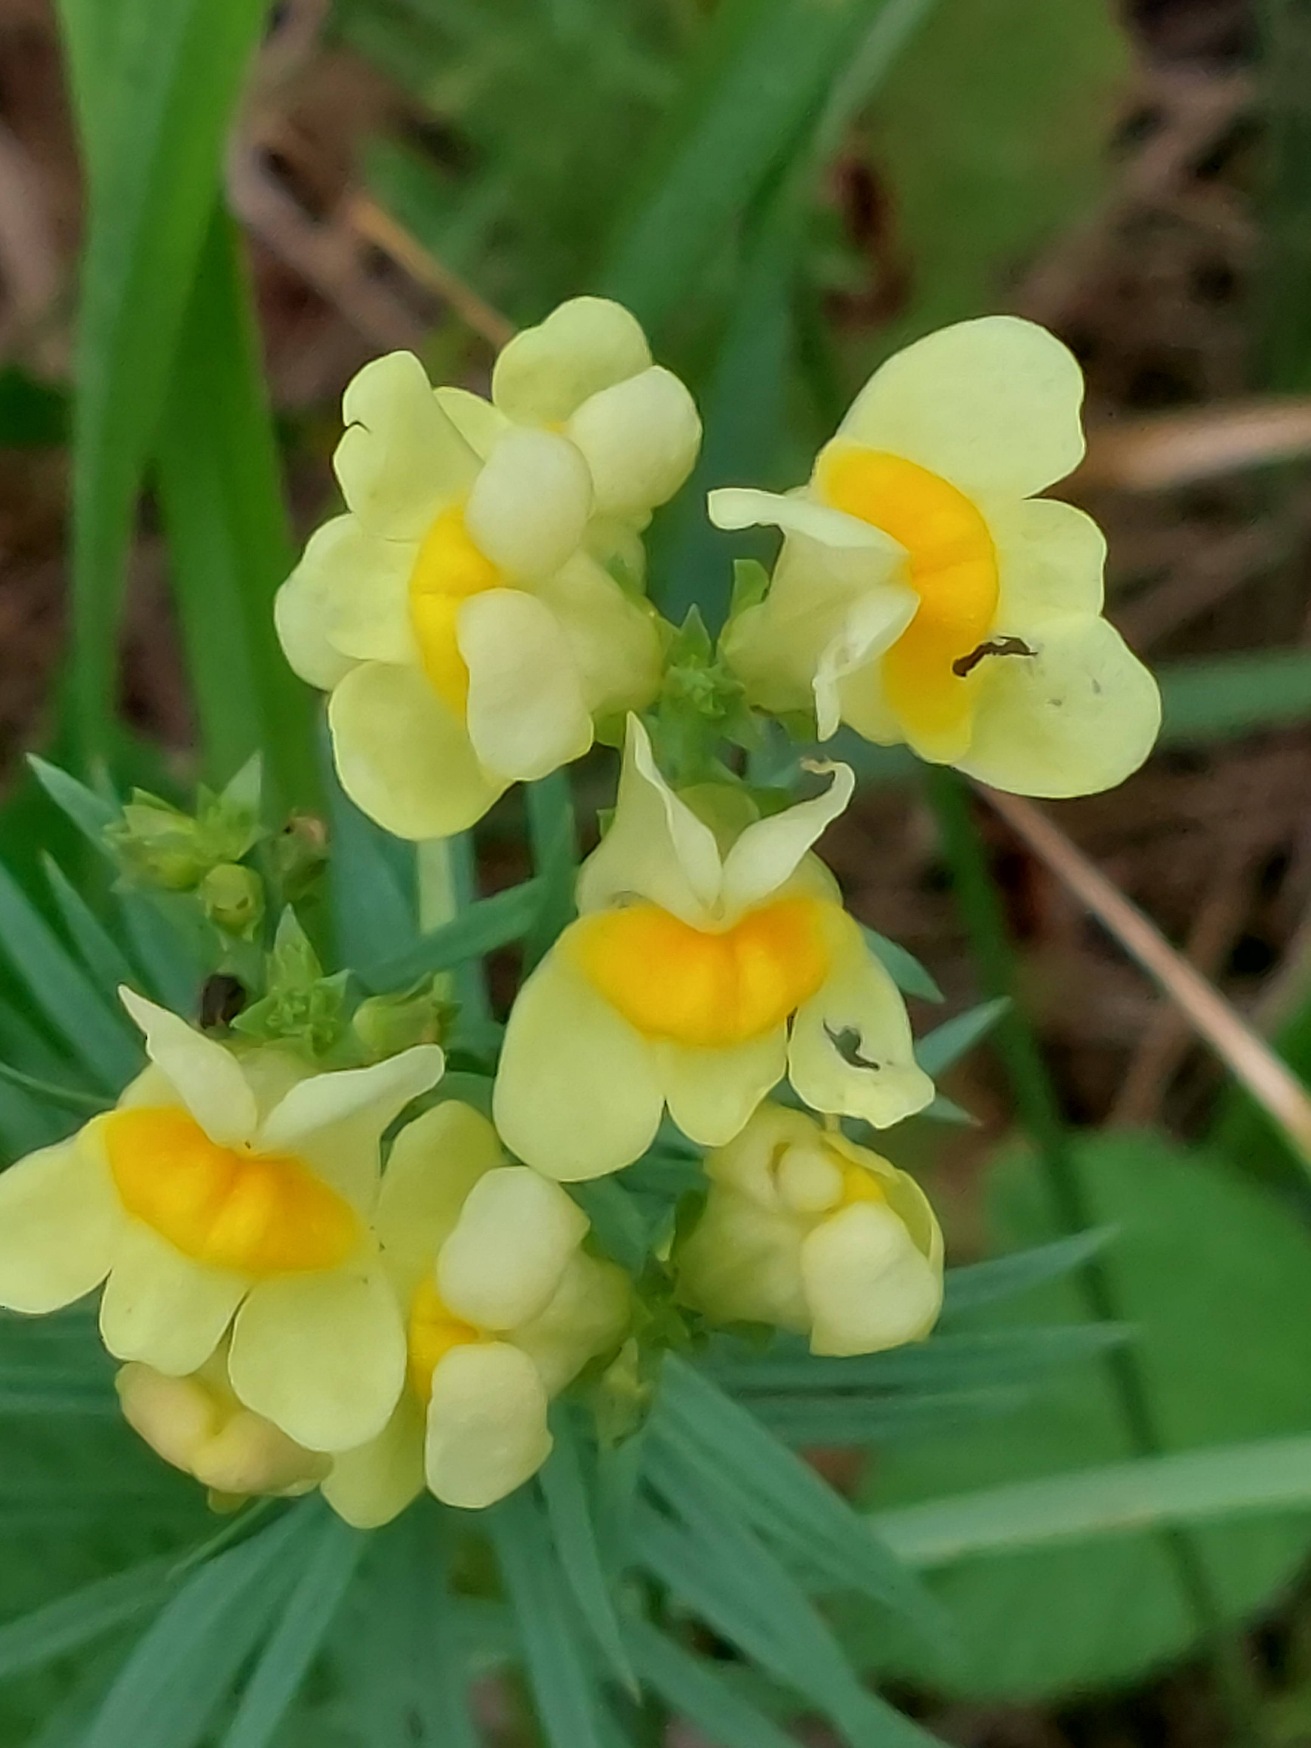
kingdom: Plantae
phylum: Tracheophyta
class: Magnoliopsida
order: Lamiales
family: Plantaginaceae
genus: Linaria
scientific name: Linaria vulgaris
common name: Almindelig torskemund
